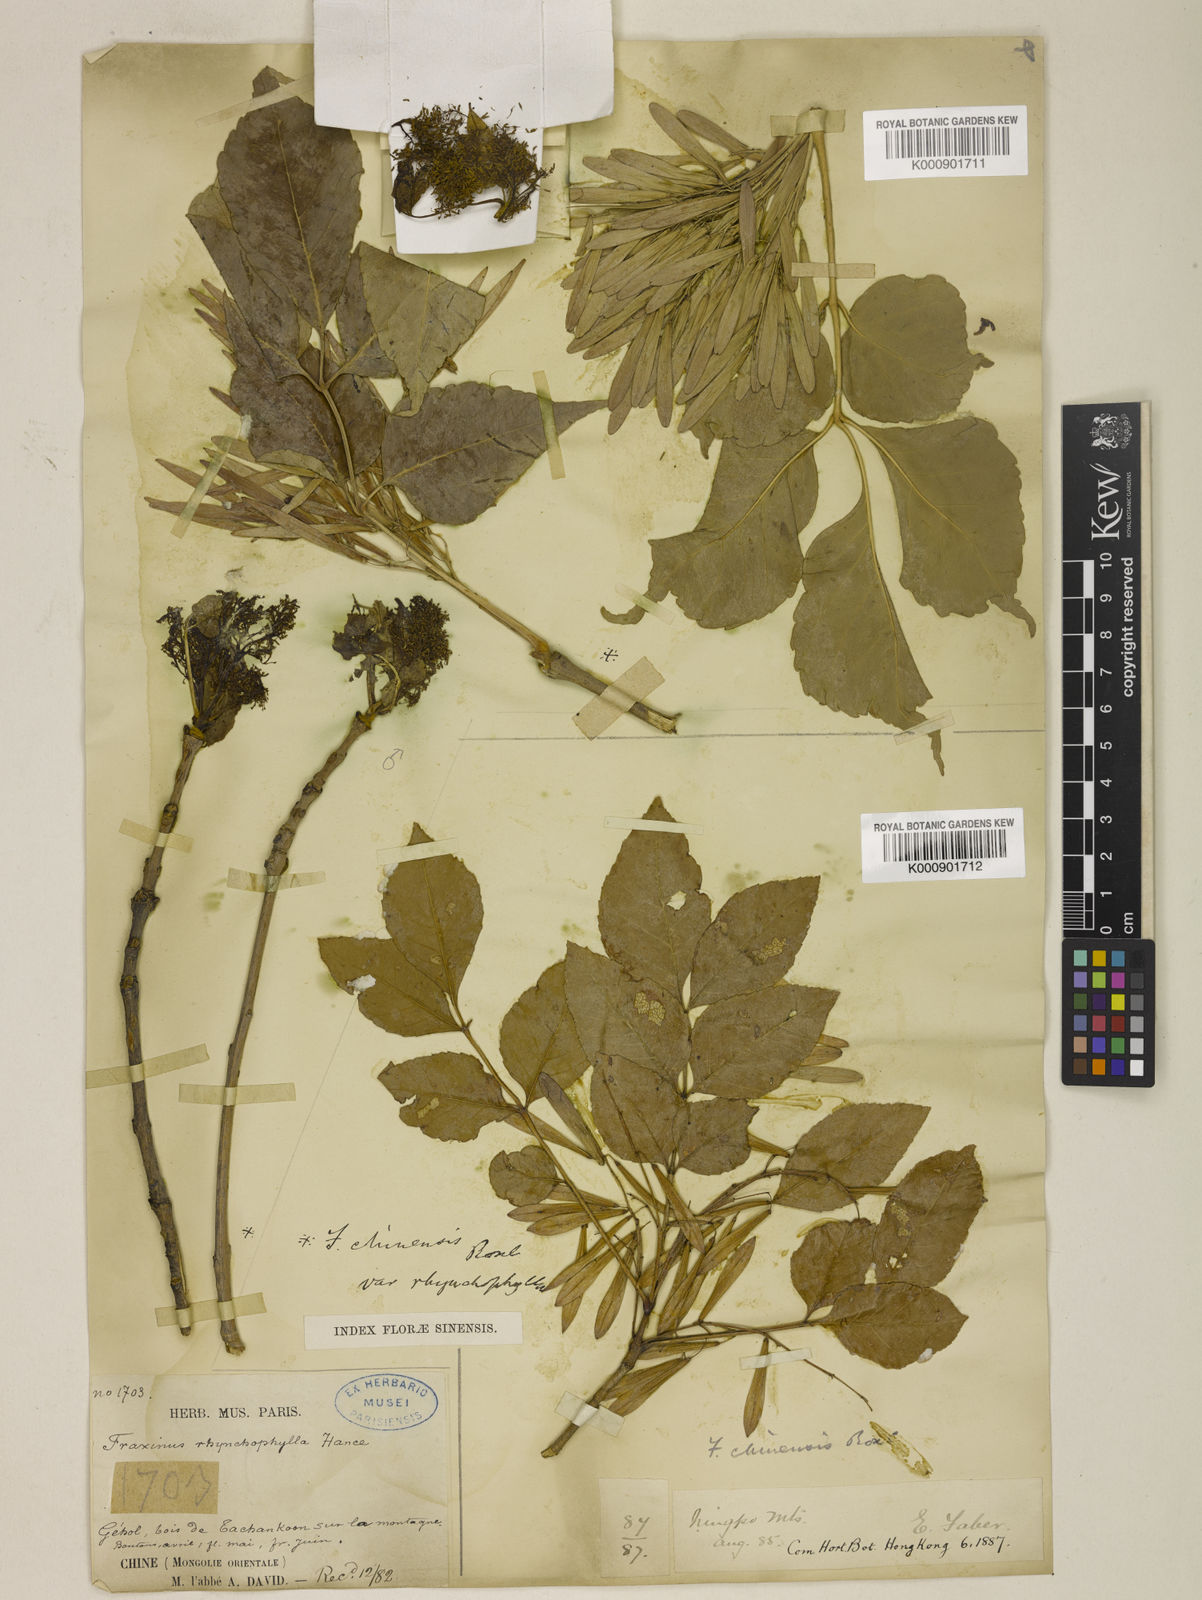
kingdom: Plantae
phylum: Tracheophyta
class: Magnoliopsida
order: Lamiales
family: Oleaceae
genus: Fraxinus
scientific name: Fraxinus chinensis
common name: Chinese ash
